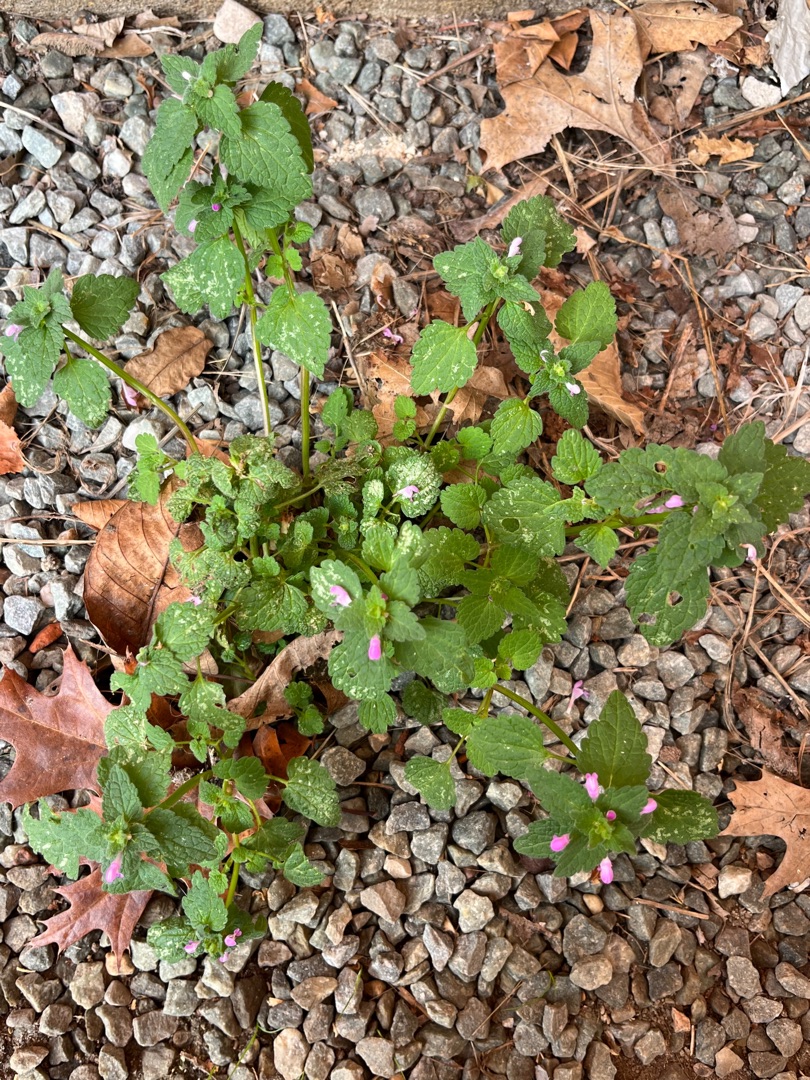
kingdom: Plantae
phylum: Tracheophyta
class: Magnoliopsida
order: Lamiales
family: Lamiaceae
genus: Lamium
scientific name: Lamium purpureum
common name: Rød tvetand
